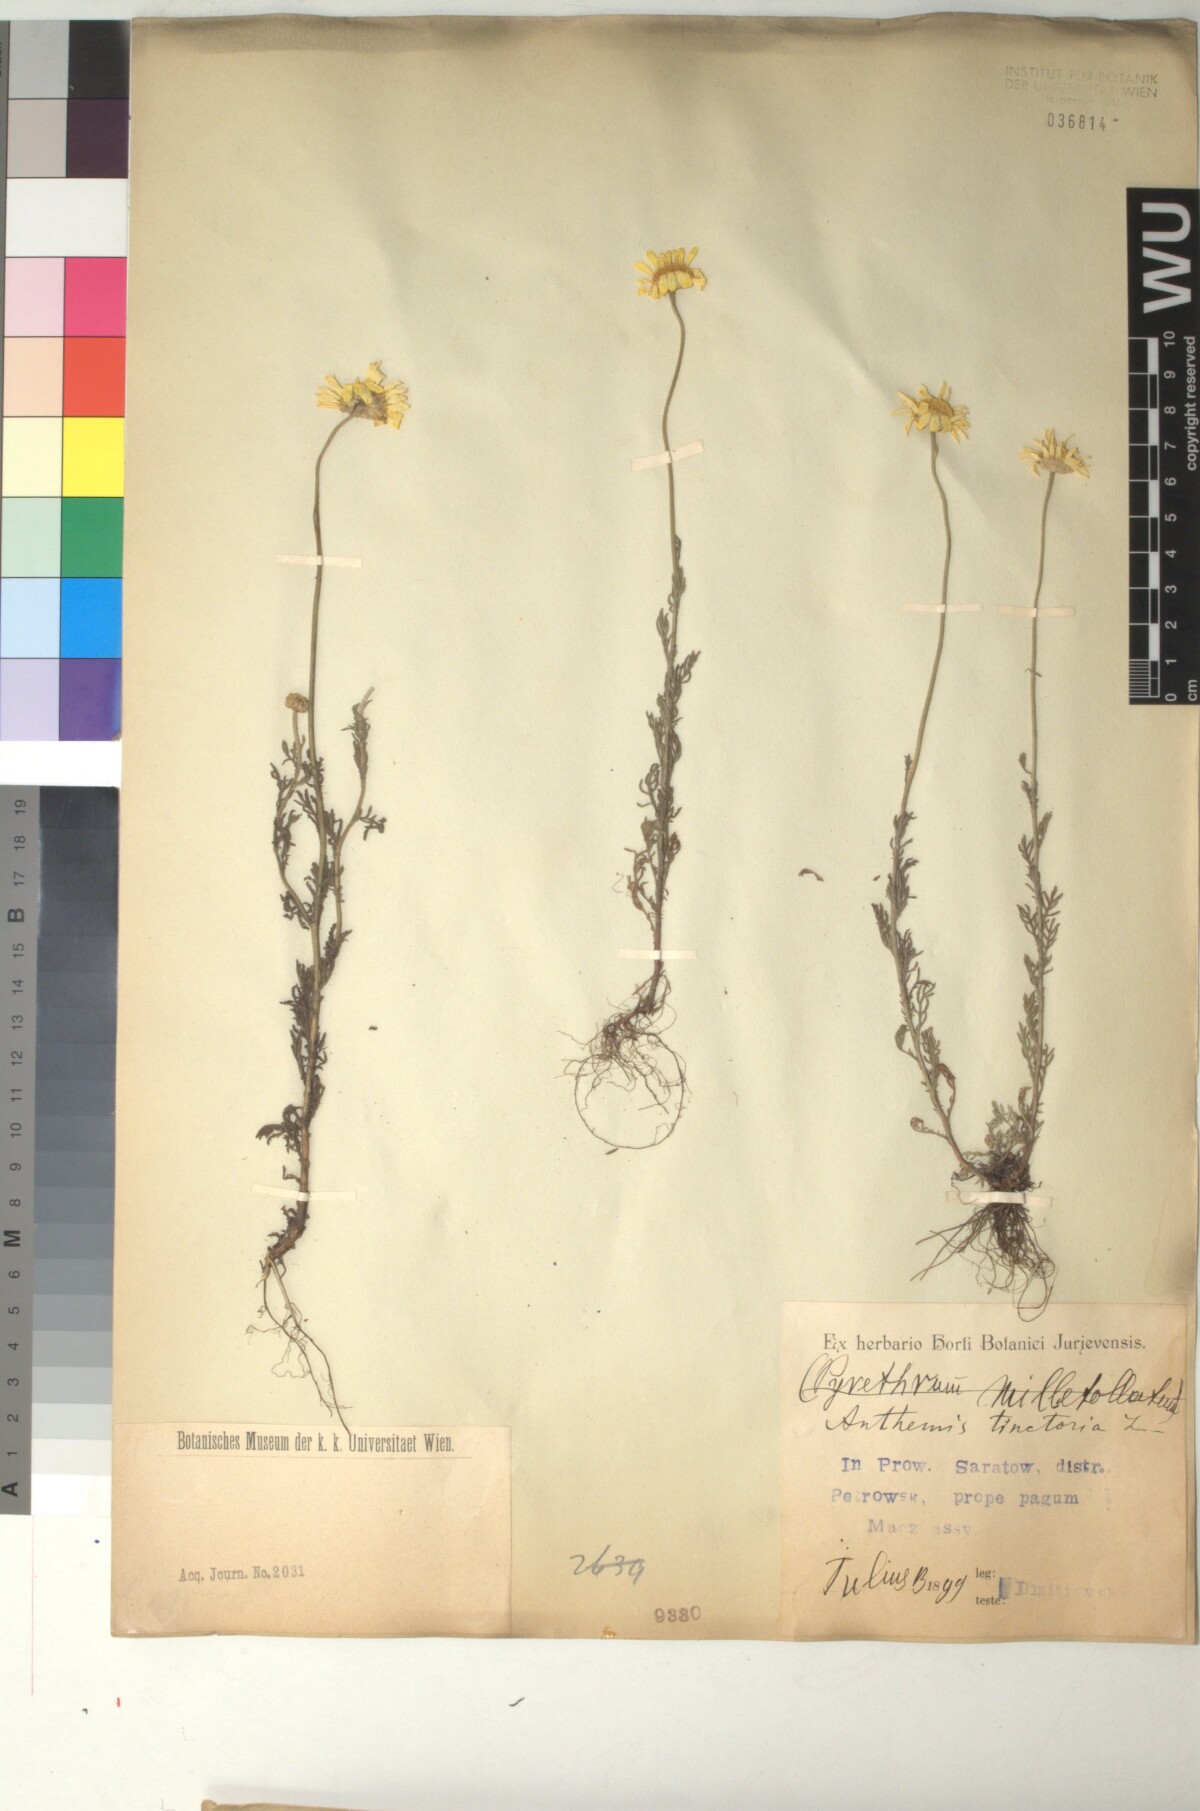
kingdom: Plantae
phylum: Tracheophyta
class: Magnoliopsida
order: Asterales
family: Asteraceae
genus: Cota
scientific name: Cota tinctoria
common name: Golden chamomile
